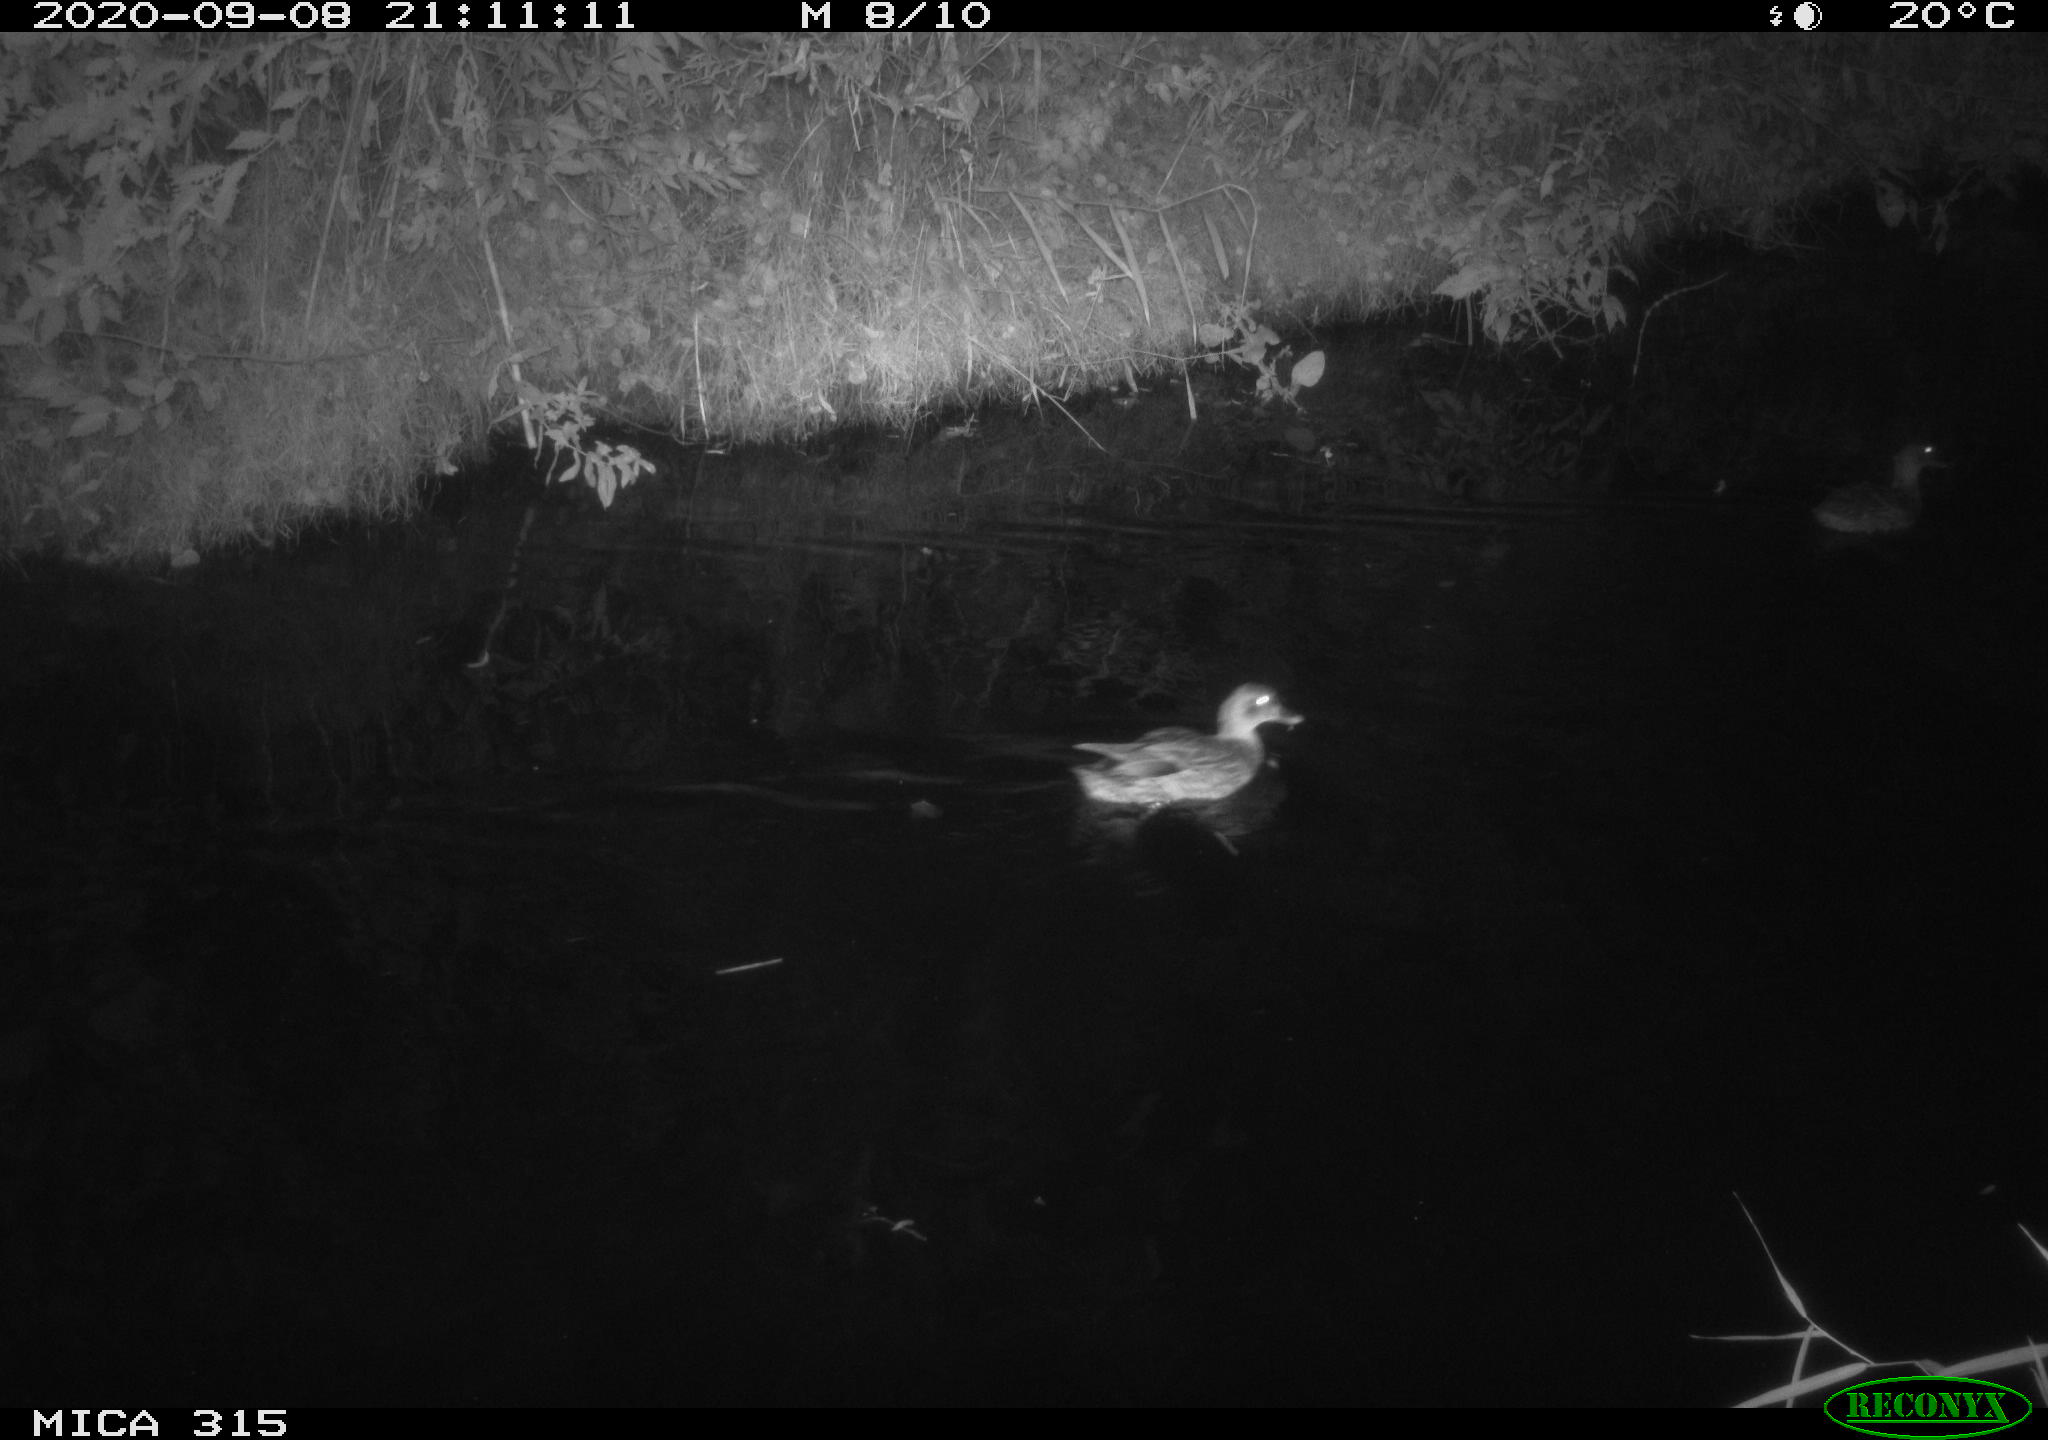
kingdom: Animalia
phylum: Chordata
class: Aves
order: Anseriformes
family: Anatidae
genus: Anas
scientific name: Anas platyrhynchos
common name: Mallard
